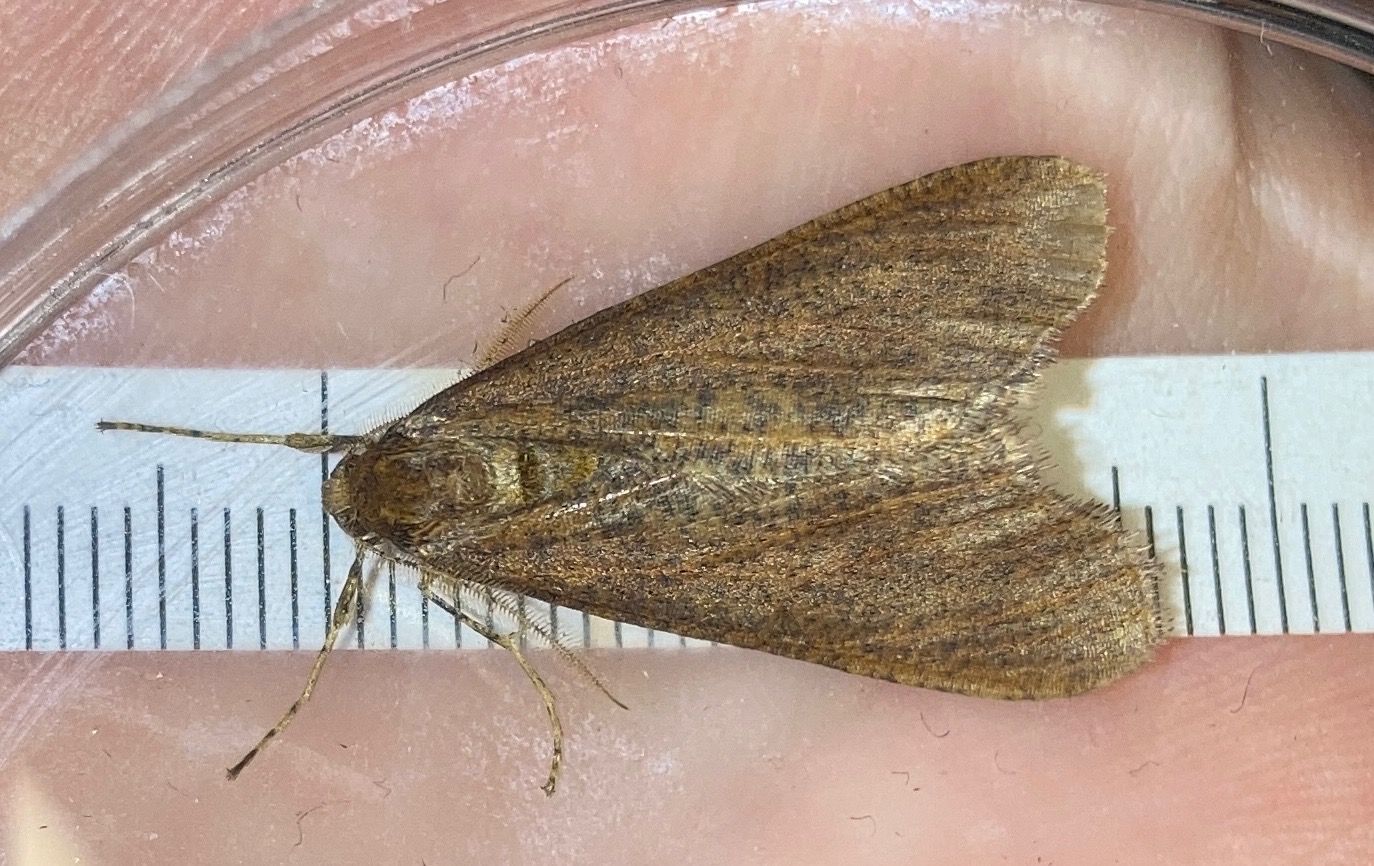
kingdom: Animalia
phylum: Arthropoda
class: Insecta
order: Lepidoptera
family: Geometridae
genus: Erannis
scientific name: Erannis defoliaria
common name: Stor frostmåler
